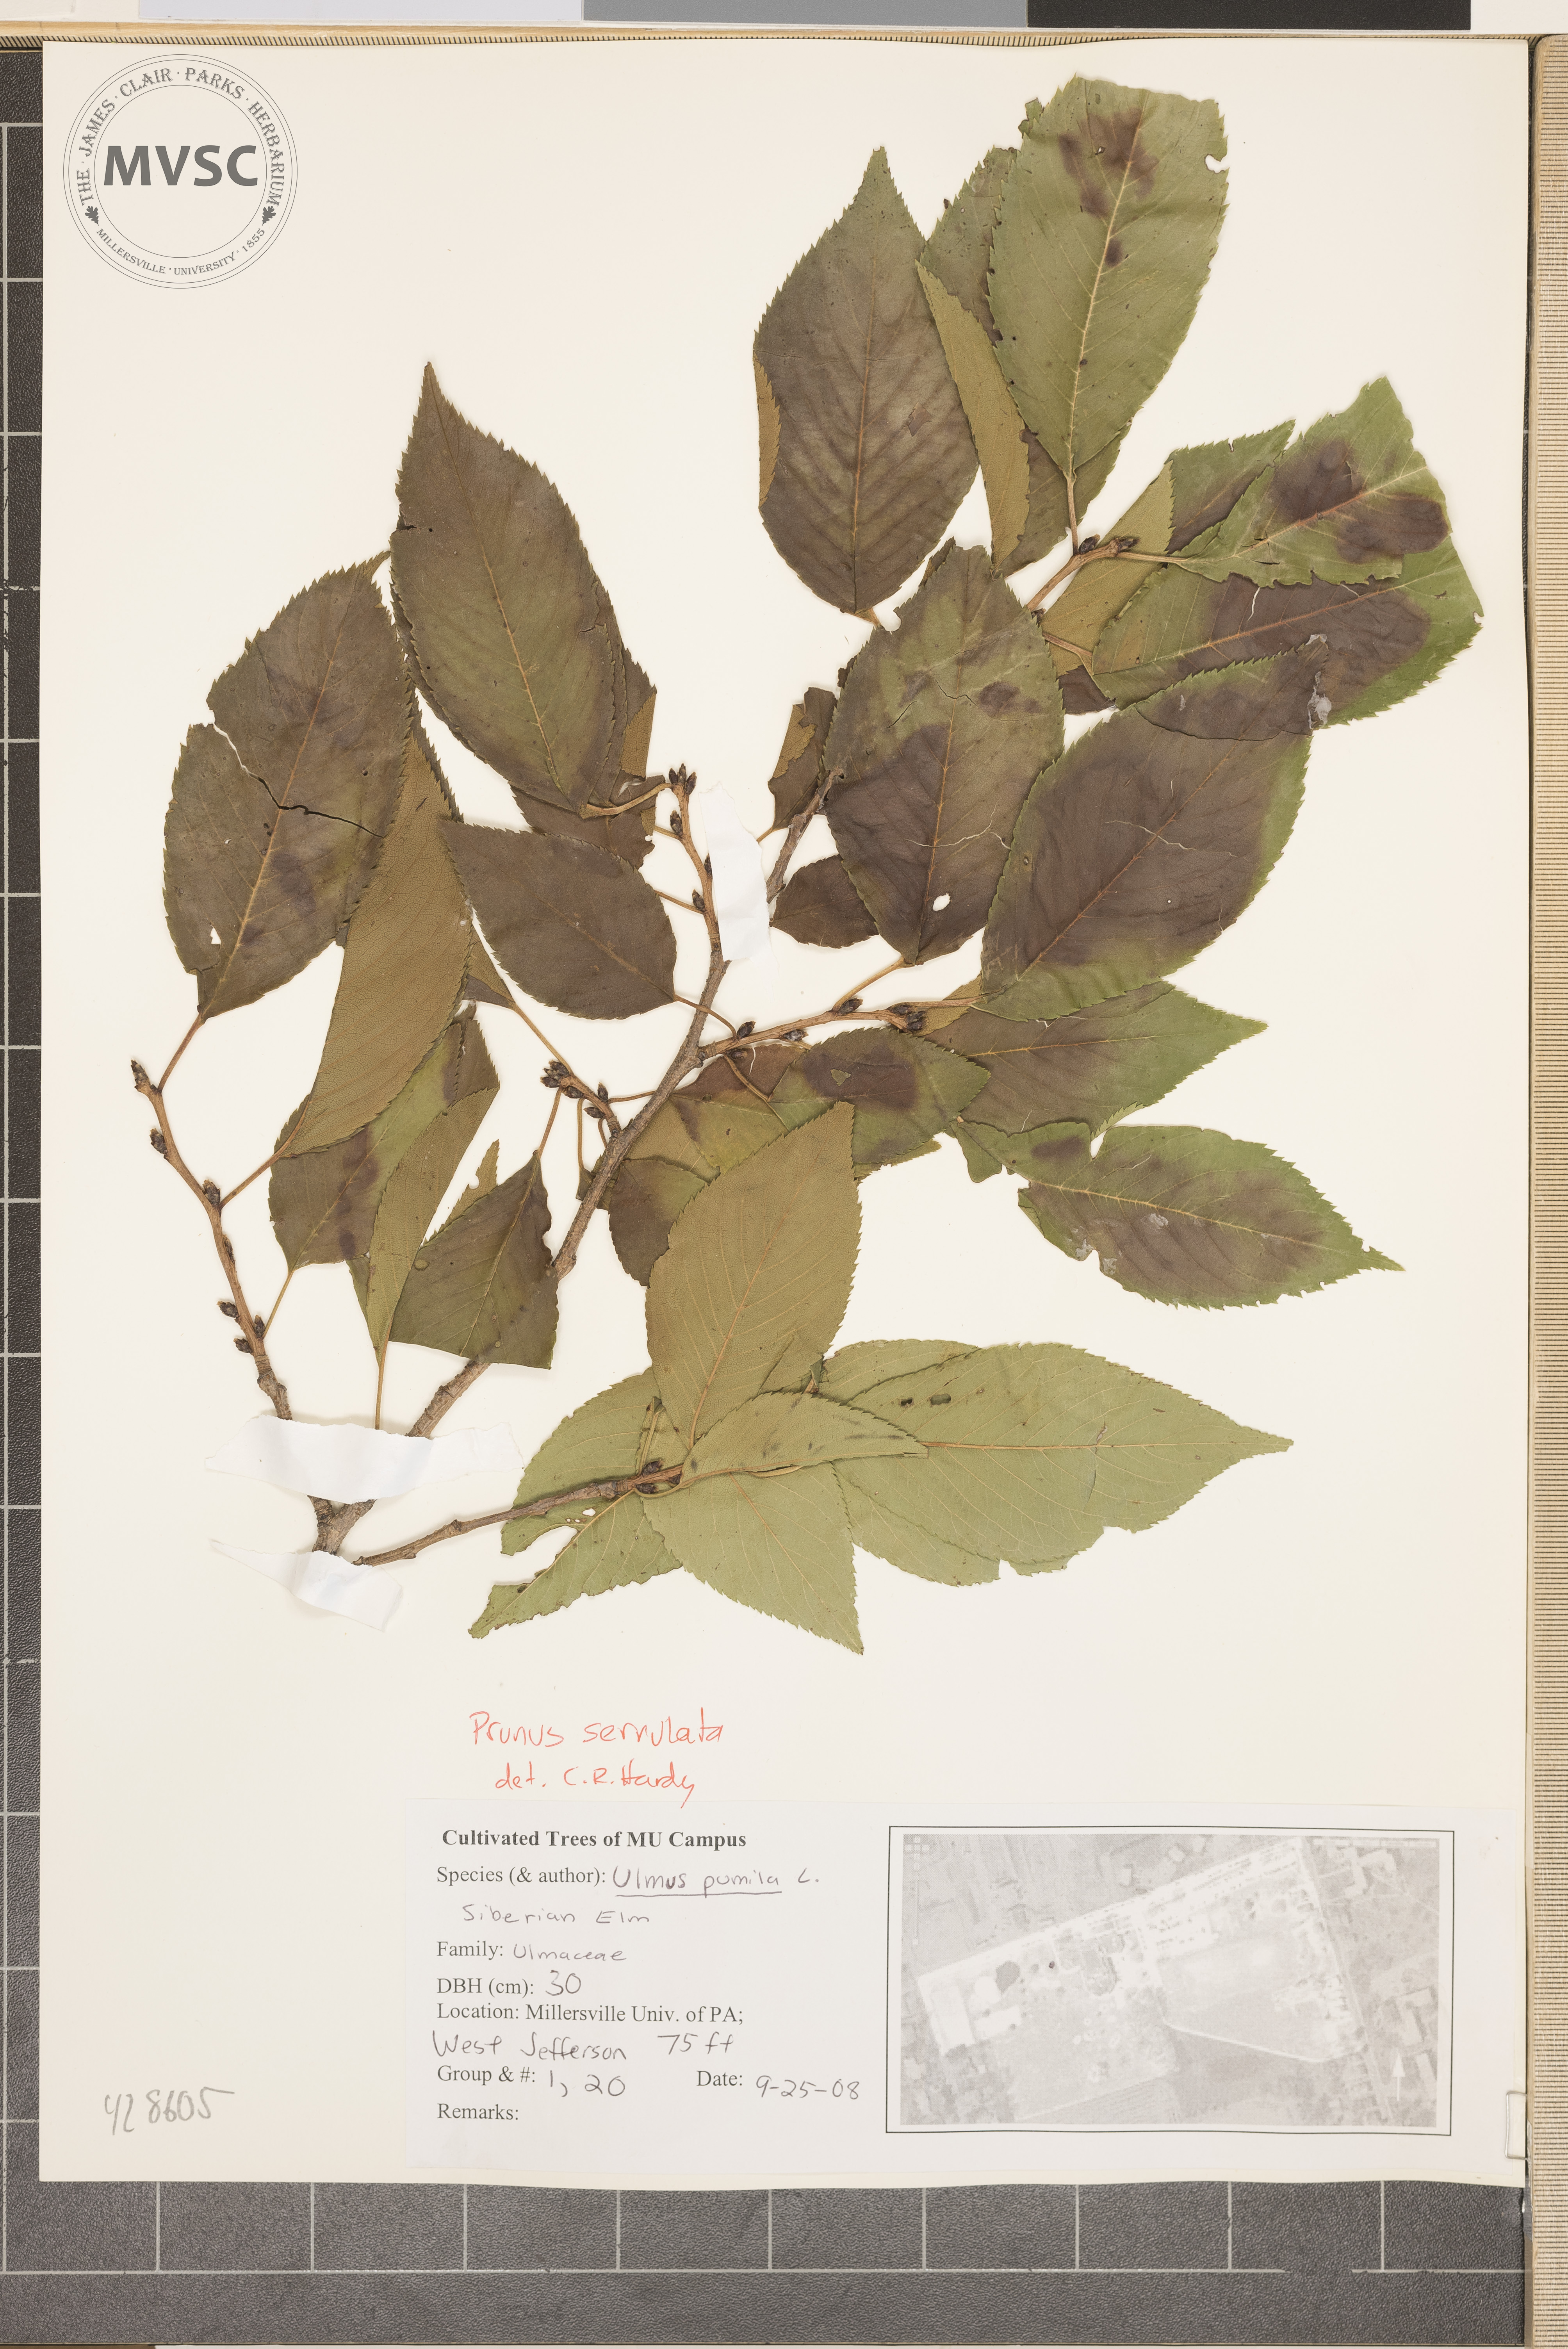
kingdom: Plantae
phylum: Tracheophyta
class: Magnoliopsida
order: Rosales
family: Rosaceae
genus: Prunus
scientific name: Prunus serrulata
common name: Japanese cherry
